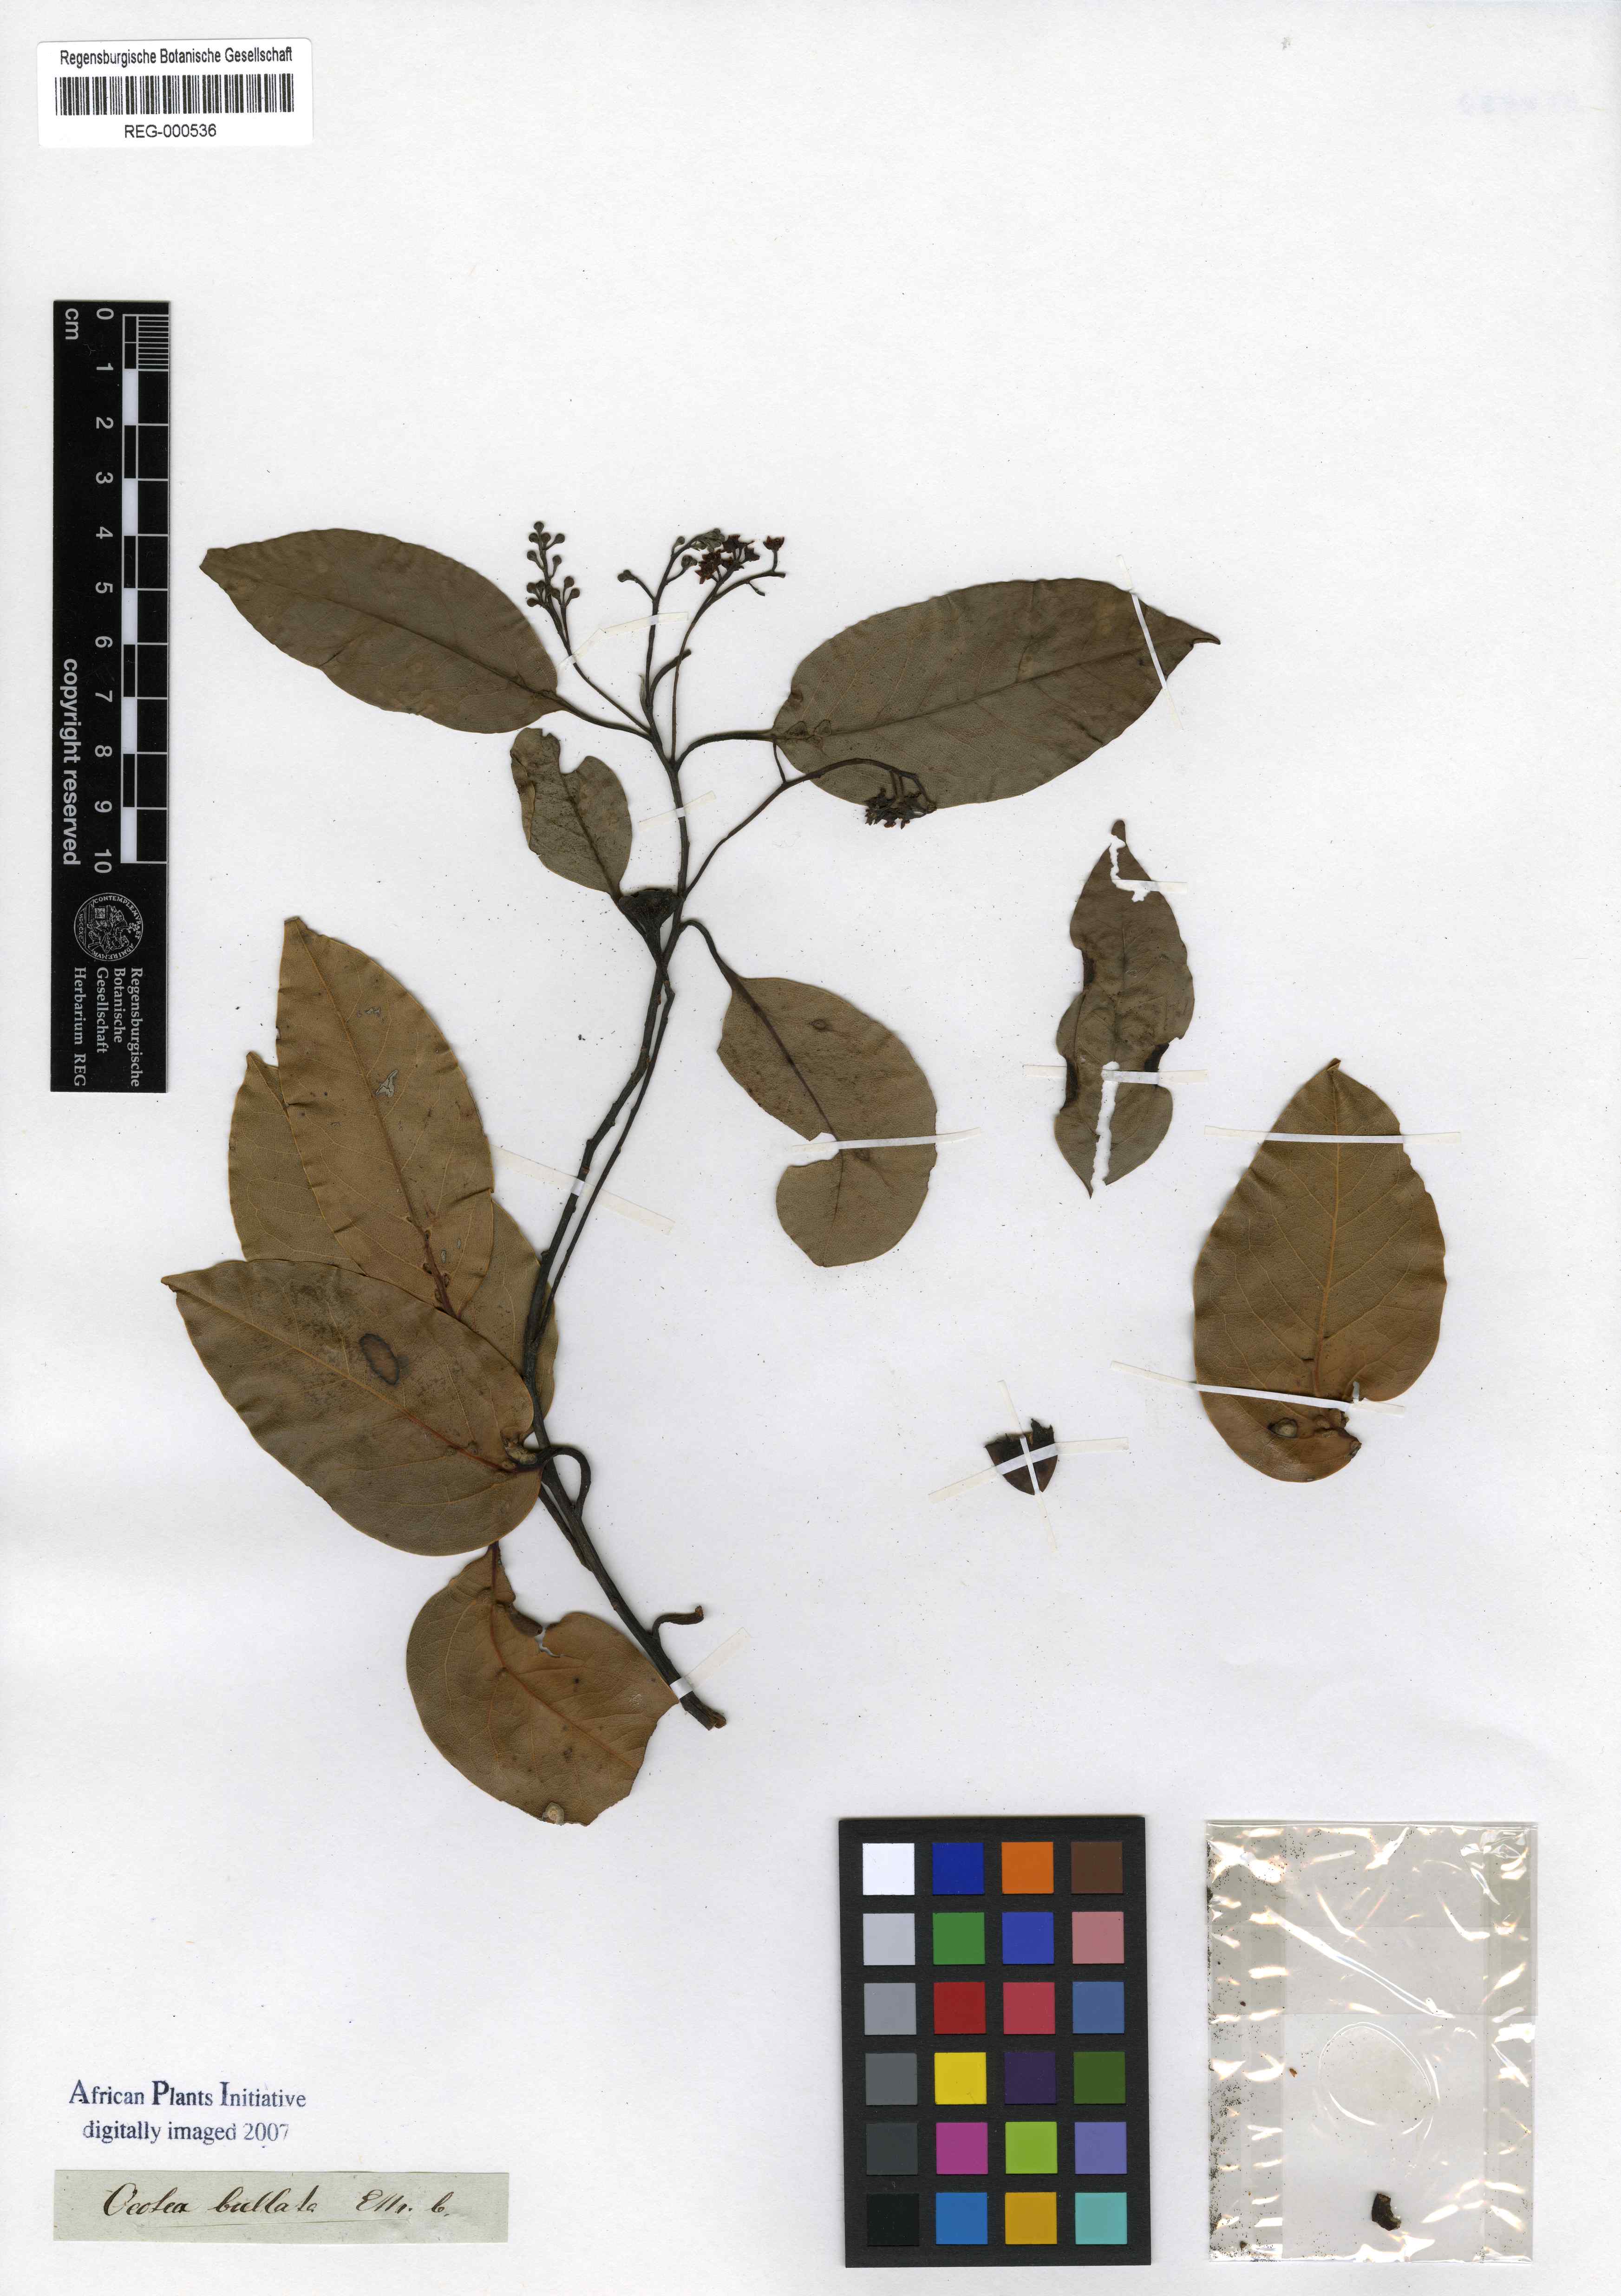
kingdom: Plantae
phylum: Tracheophyta
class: Magnoliopsida
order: Laurales
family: Lauraceae
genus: Ocotea
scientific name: Ocotea bullata
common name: Black stinkwood
